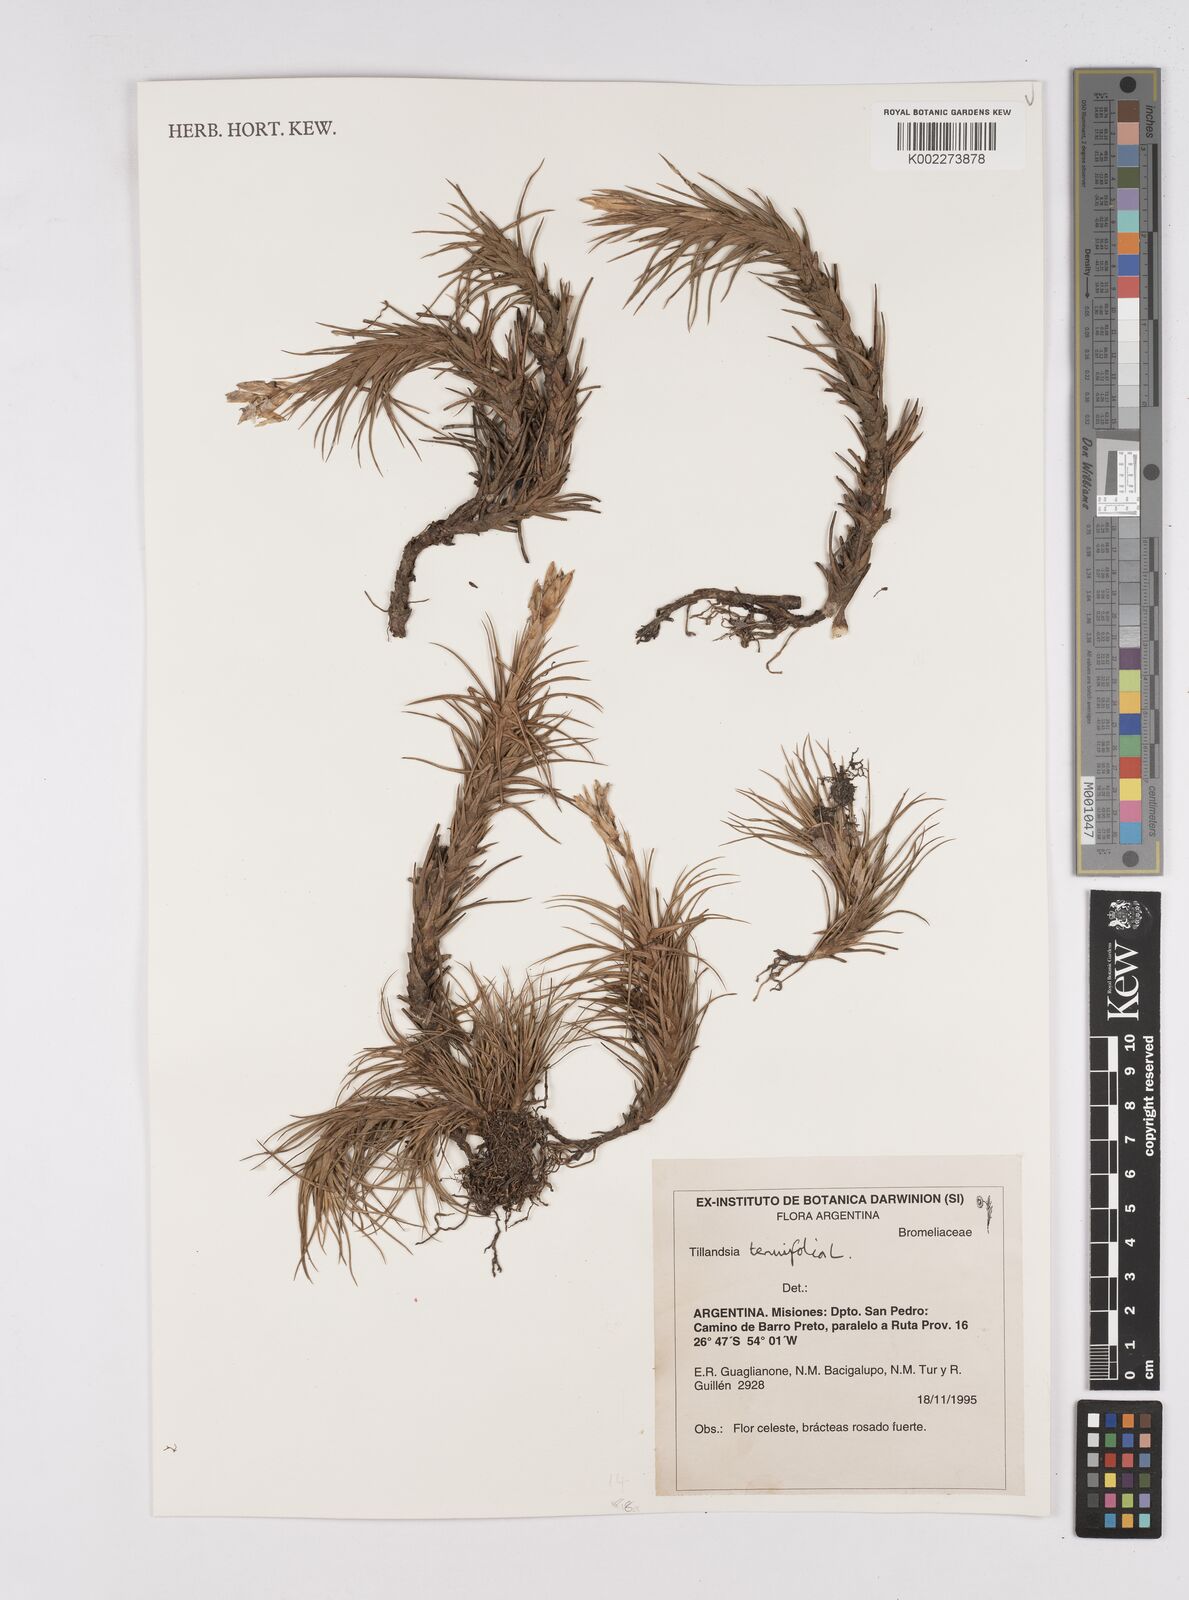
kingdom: Plantae
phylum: Tracheophyta
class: Liliopsida
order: Poales
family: Bromeliaceae
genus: Tillandsia
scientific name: Tillandsia tenuifolia
